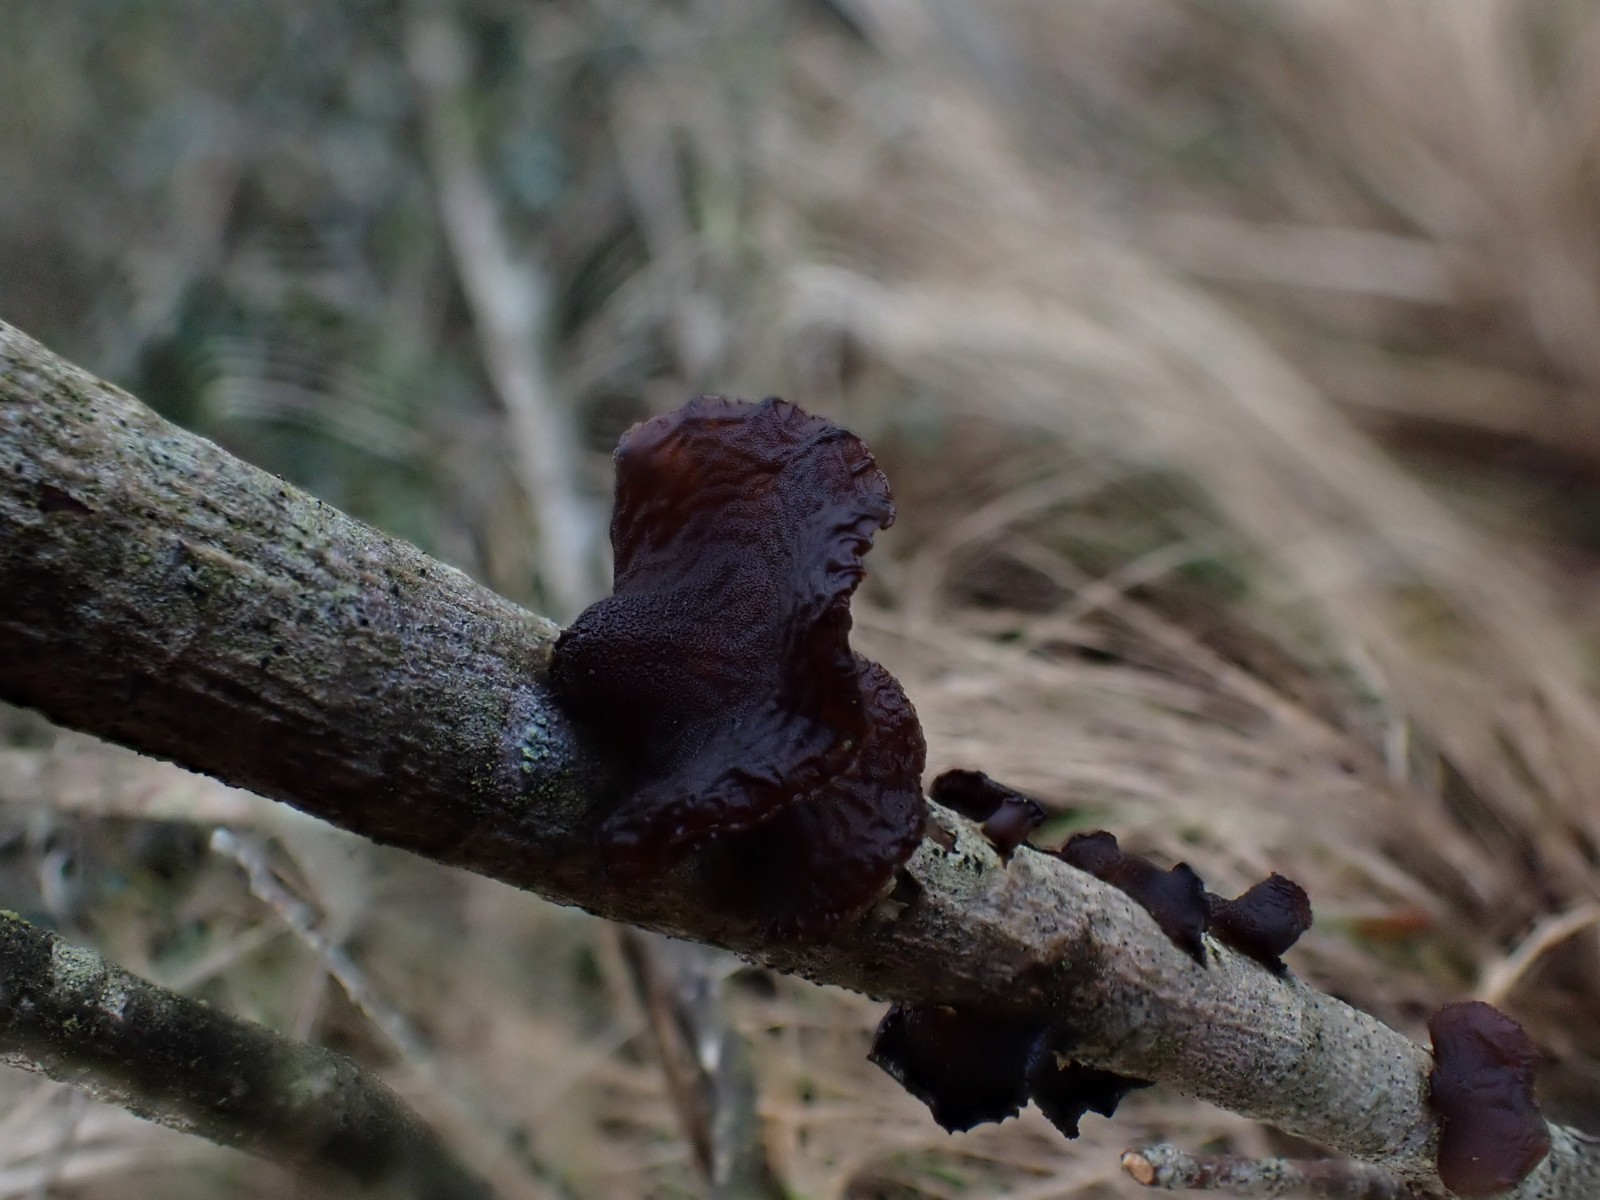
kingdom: Fungi
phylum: Basidiomycota
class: Agaricomycetes
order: Auriculariales
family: Auriculariaceae
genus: Exidia
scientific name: Exidia recisa
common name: pile-bævretop
